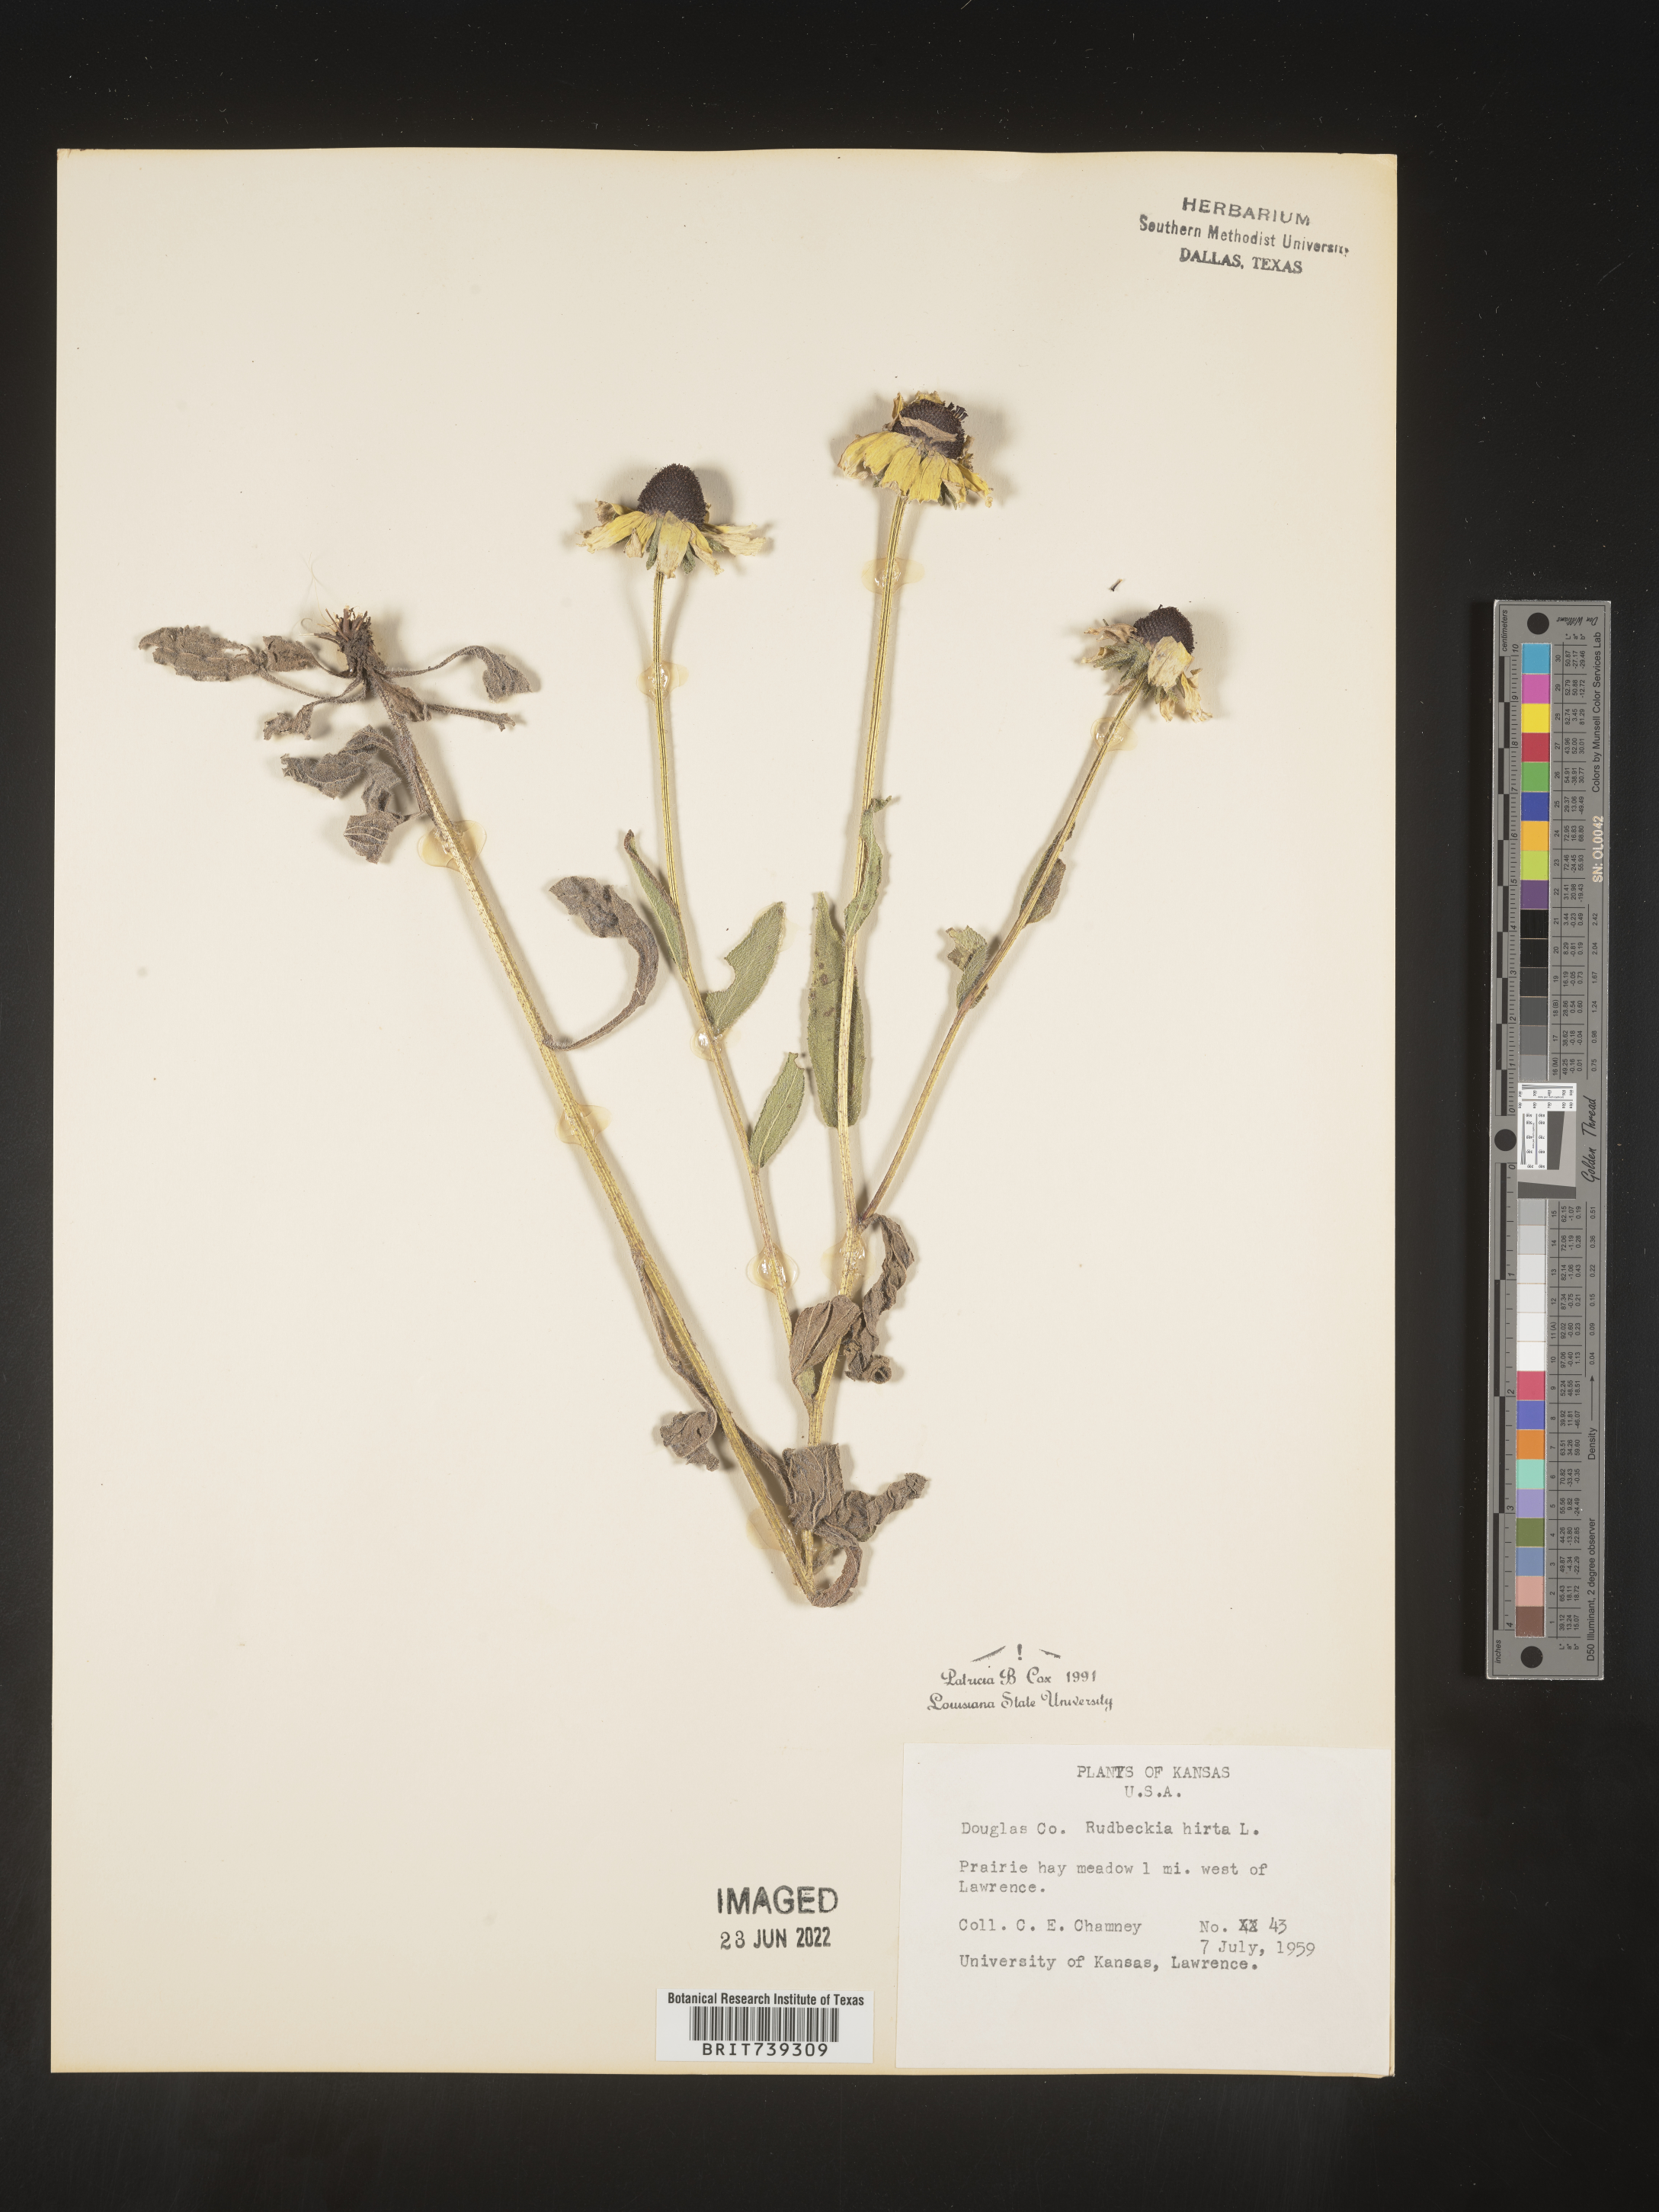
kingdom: Plantae
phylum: Tracheophyta
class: Magnoliopsida
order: Asterales
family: Asteraceae
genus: Rudbeckia
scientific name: Rudbeckia hirta
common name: Black-eyed-susan
